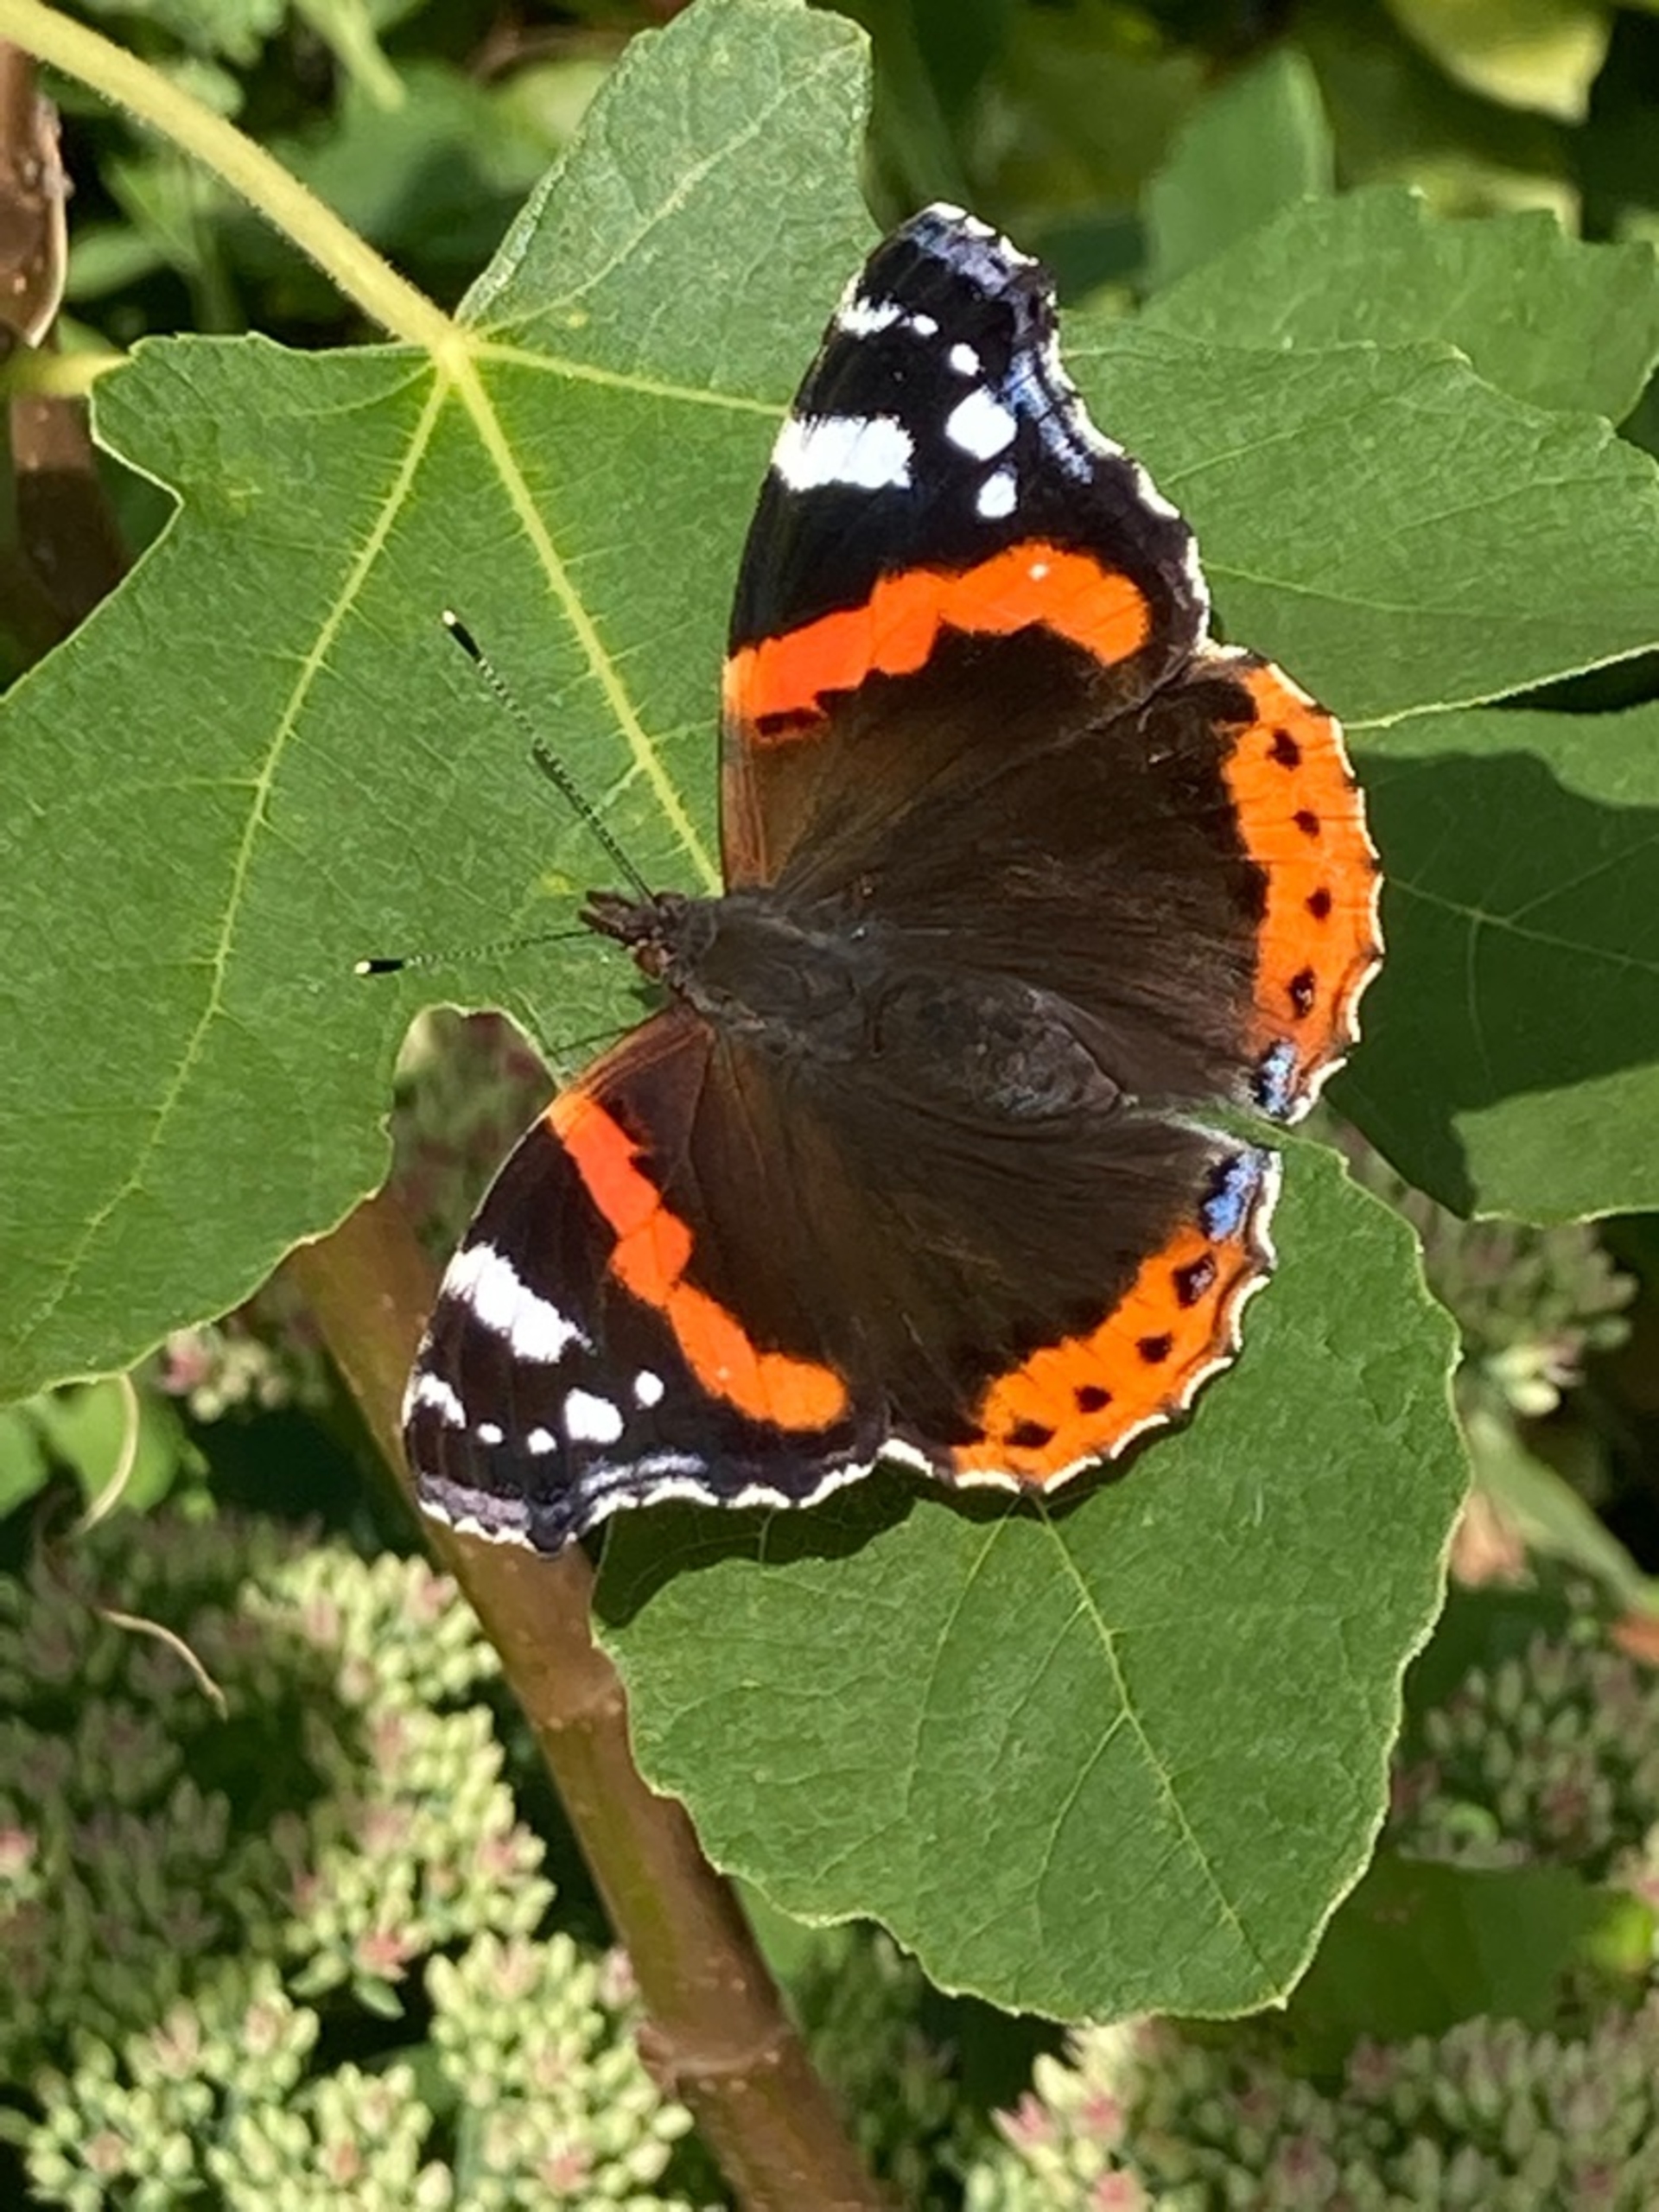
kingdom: Animalia
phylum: Arthropoda
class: Insecta
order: Lepidoptera
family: Nymphalidae
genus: Vanessa
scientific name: Vanessa atalanta
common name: Admiral
